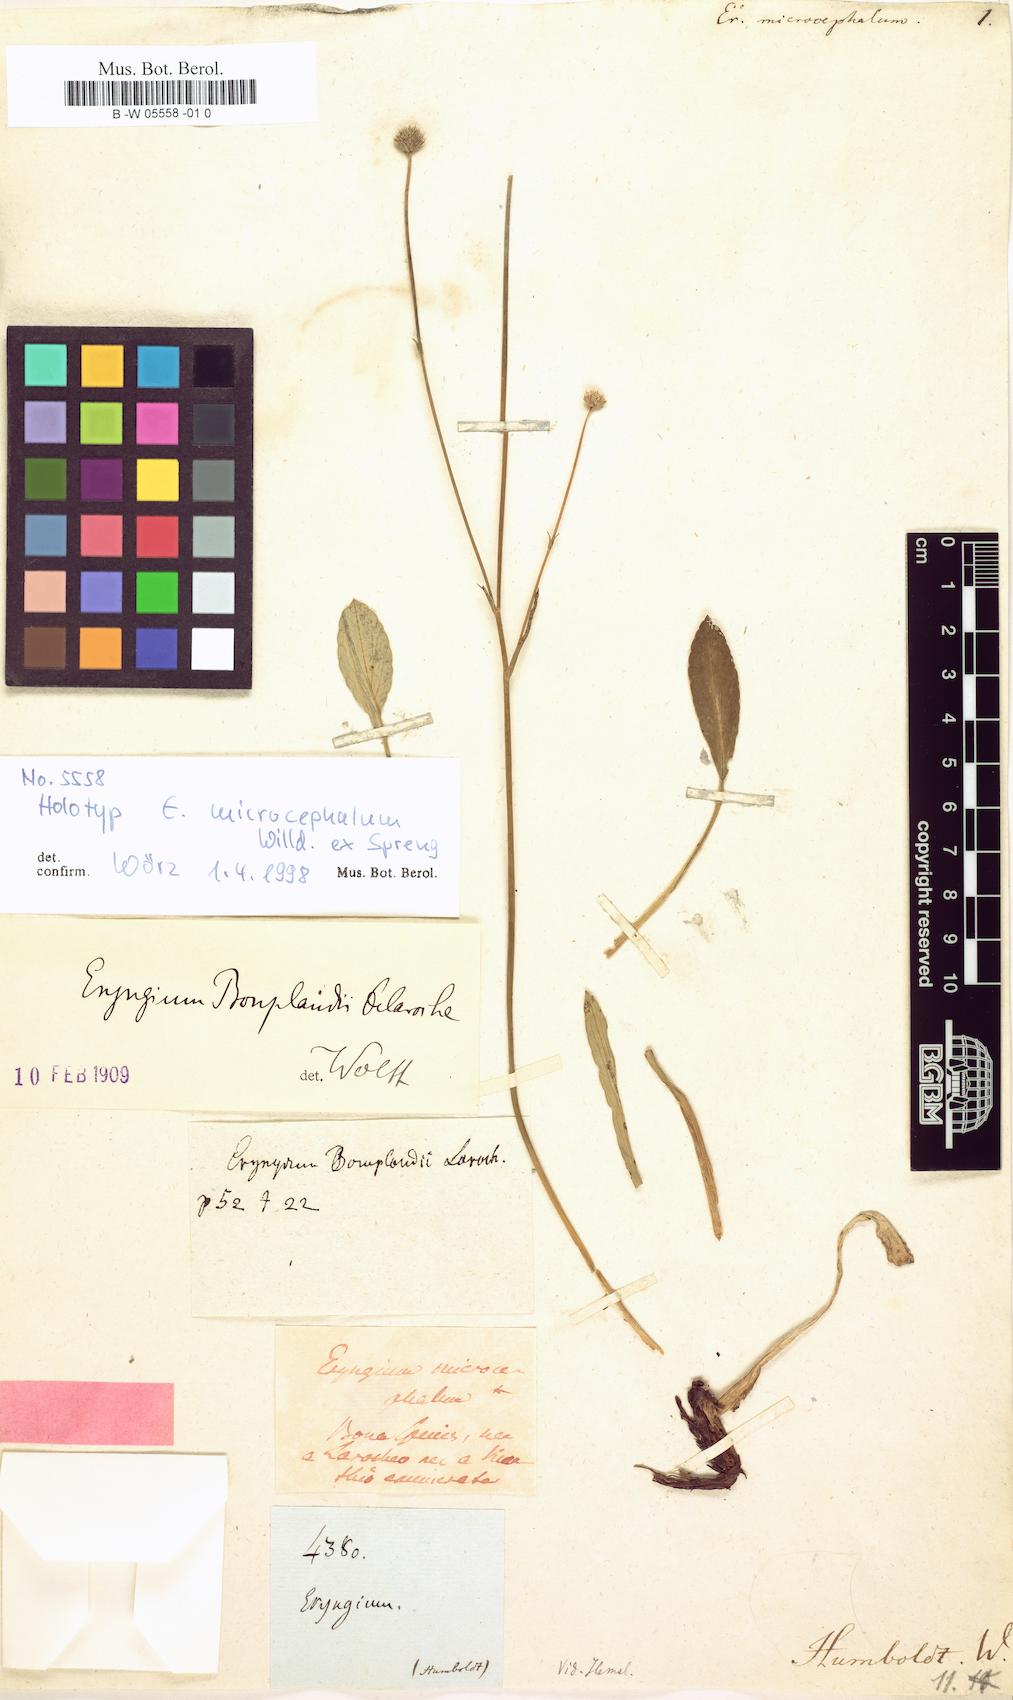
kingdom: Plantae
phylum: Tracheophyta
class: Magnoliopsida
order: Apiales
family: Apiaceae
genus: Eryngium
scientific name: Eryngium microcephalum
